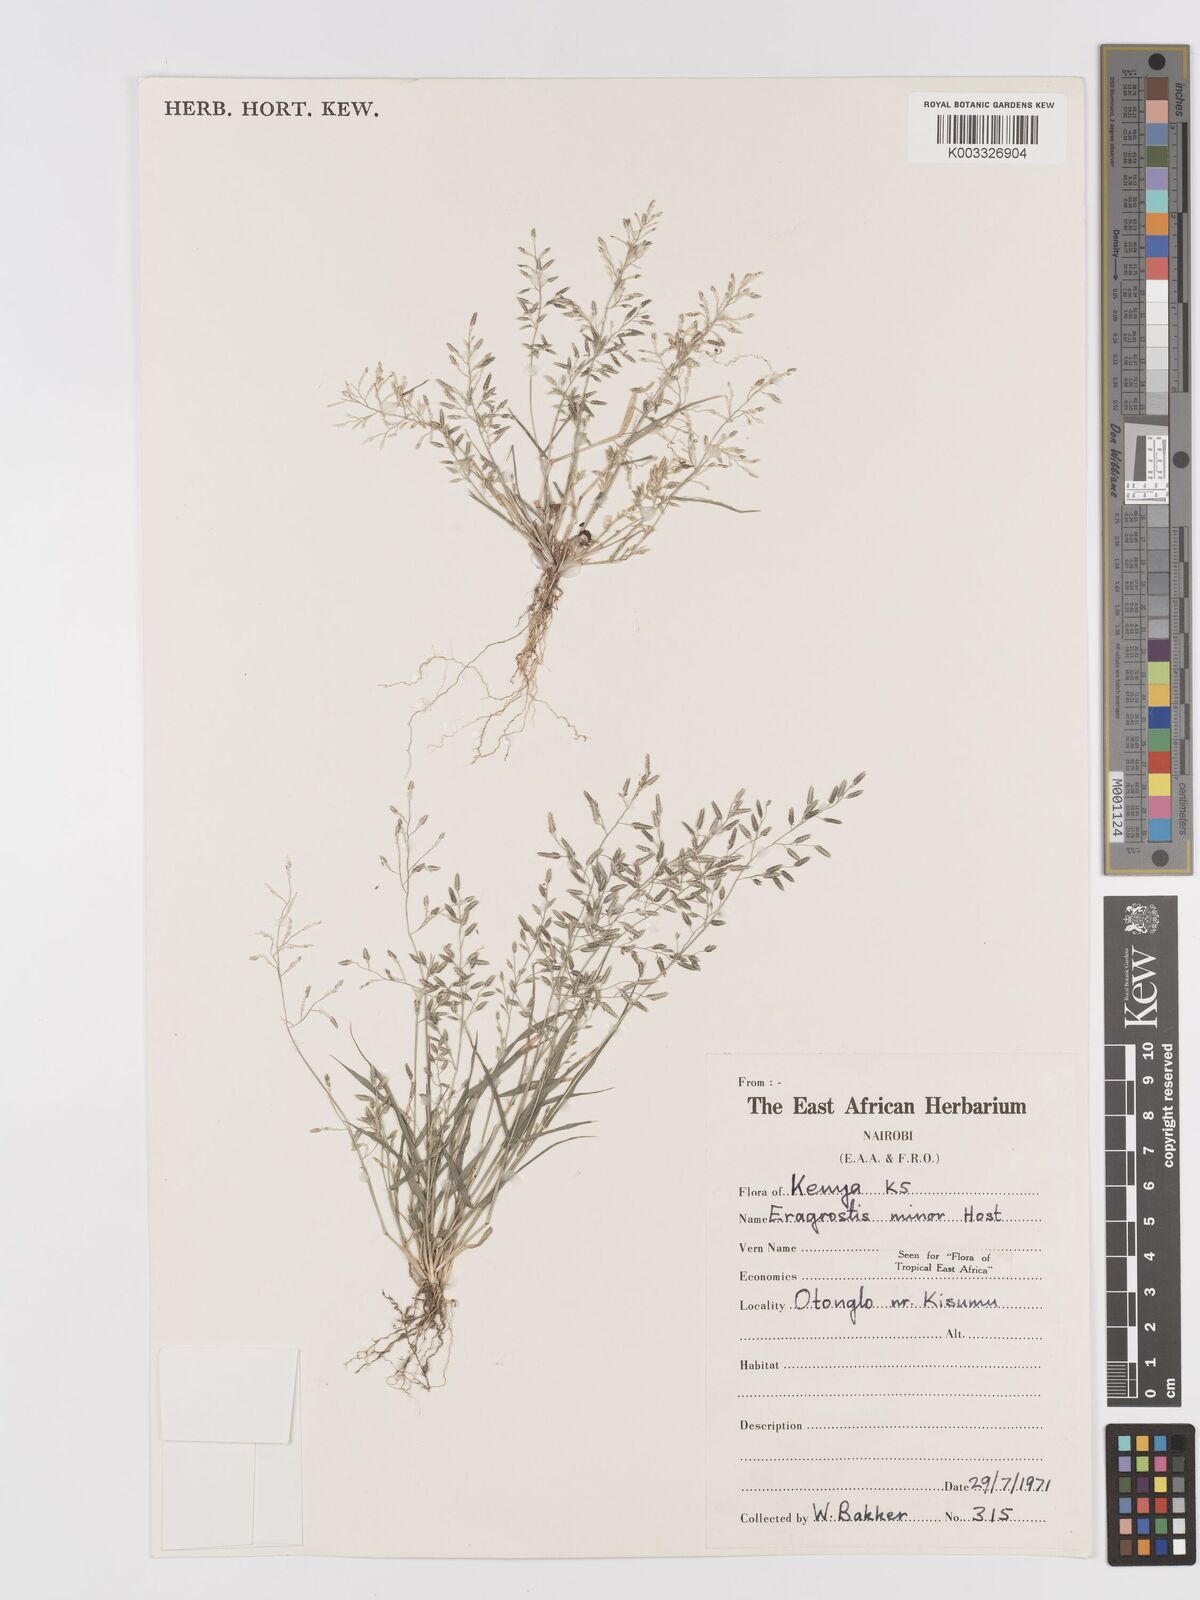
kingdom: Plantae
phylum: Tracheophyta
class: Liliopsida
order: Poales
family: Poaceae
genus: Eragrostis
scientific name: Eragrostis minor
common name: Small love-grass
